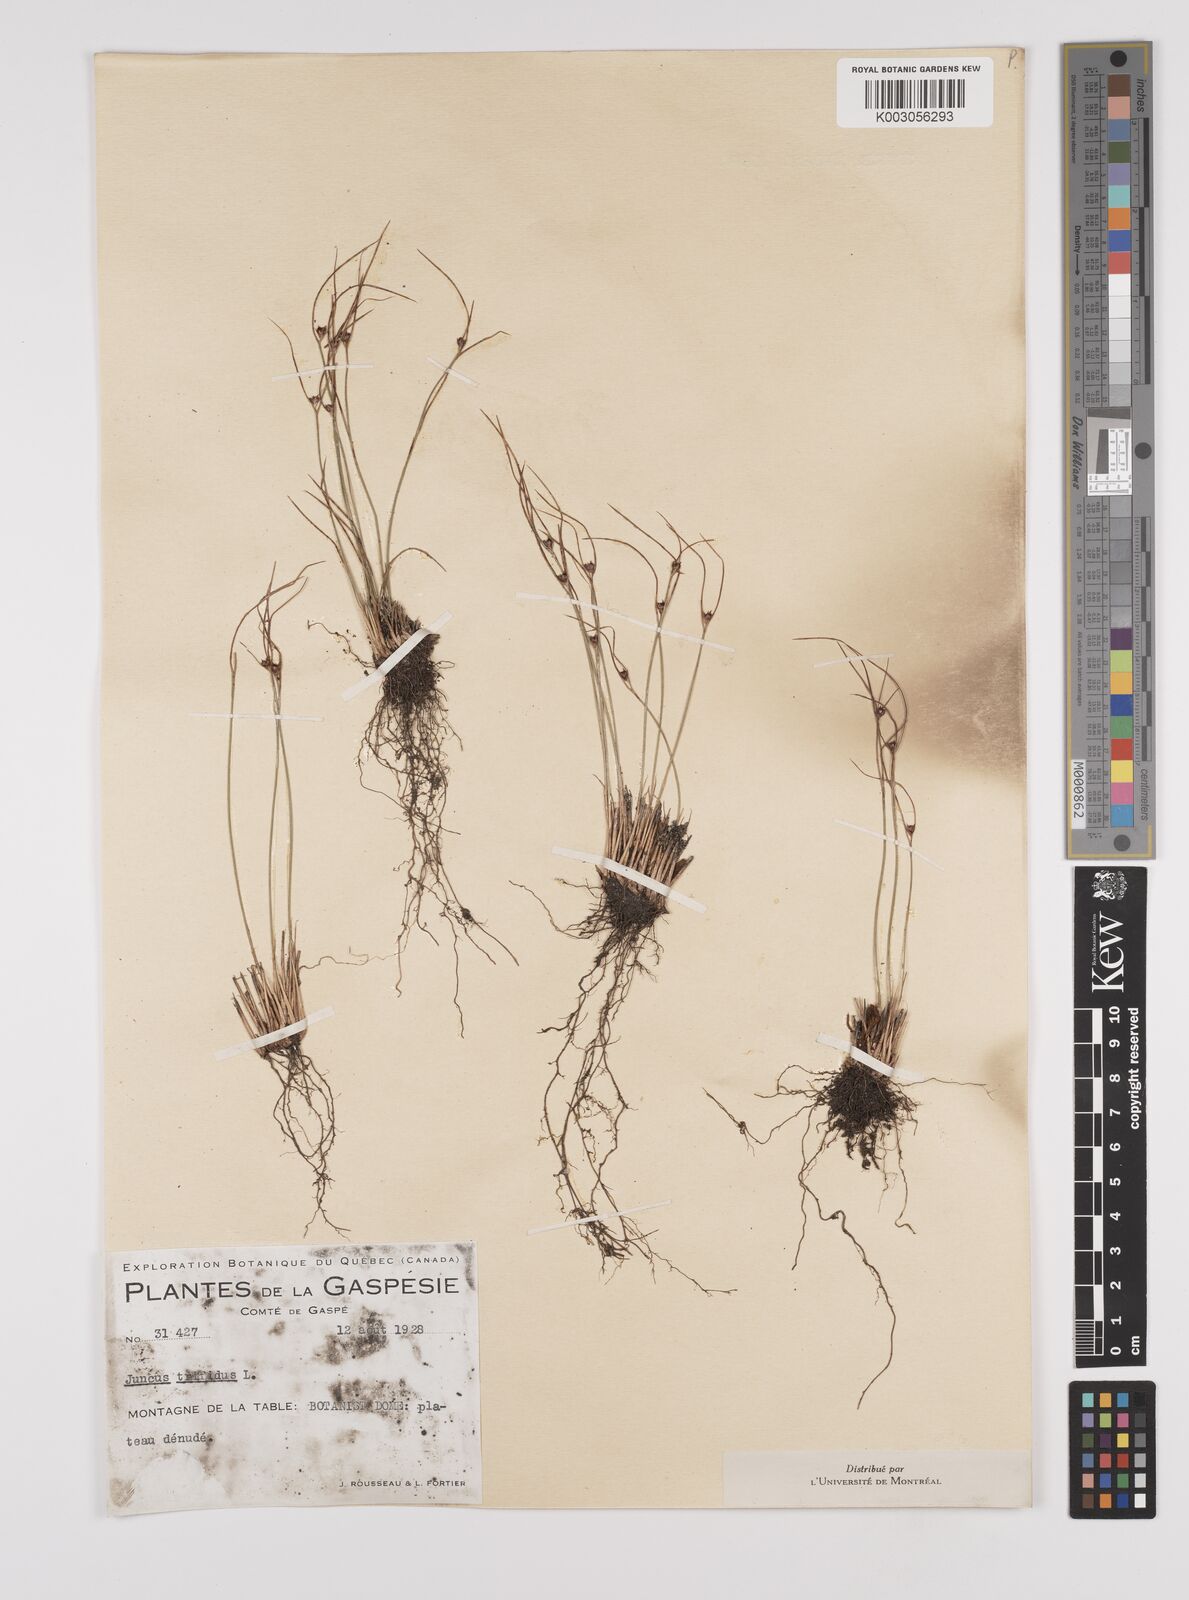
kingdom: Plantae
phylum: Tracheophyta
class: Liliopsida
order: Poales
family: Juncaceae
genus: Oreojuncus
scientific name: Oreojuncus trifidus
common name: Highland rush
